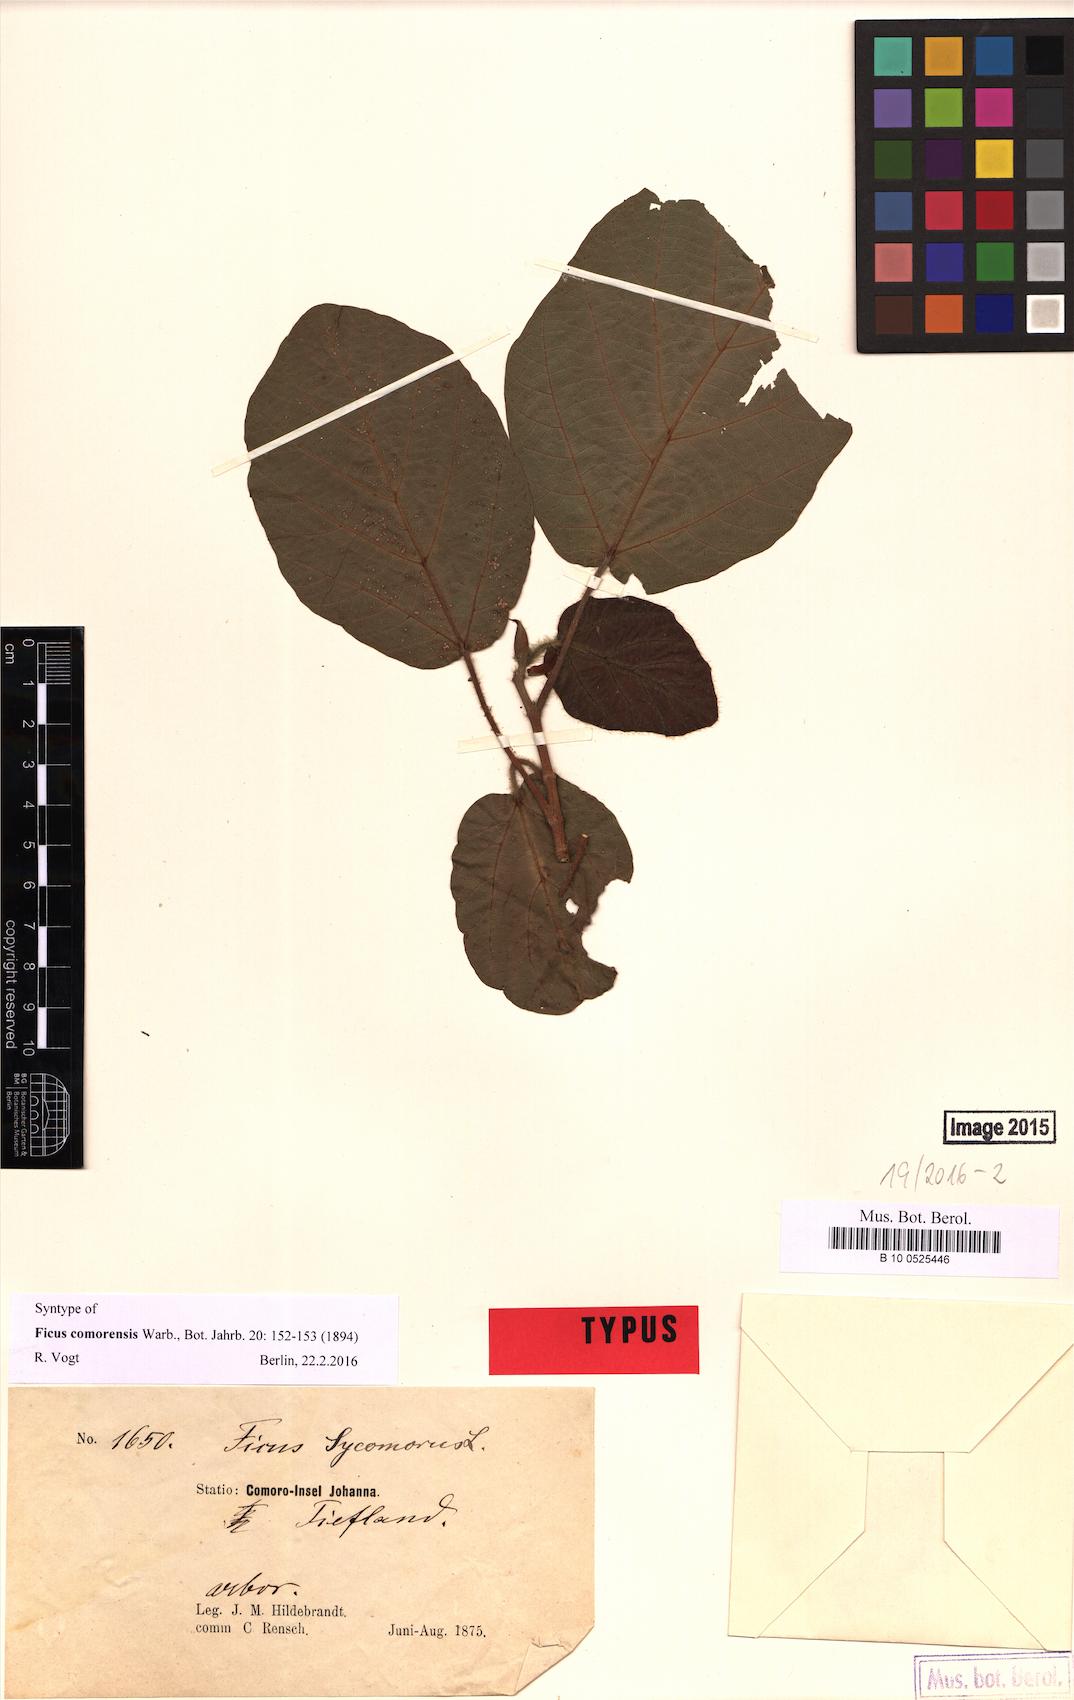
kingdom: Plantae
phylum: Tracheophyta
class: Magnoliopsida
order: Rosales
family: Moraceae
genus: Ficus
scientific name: Ficus sycomorus
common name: Sycomore
